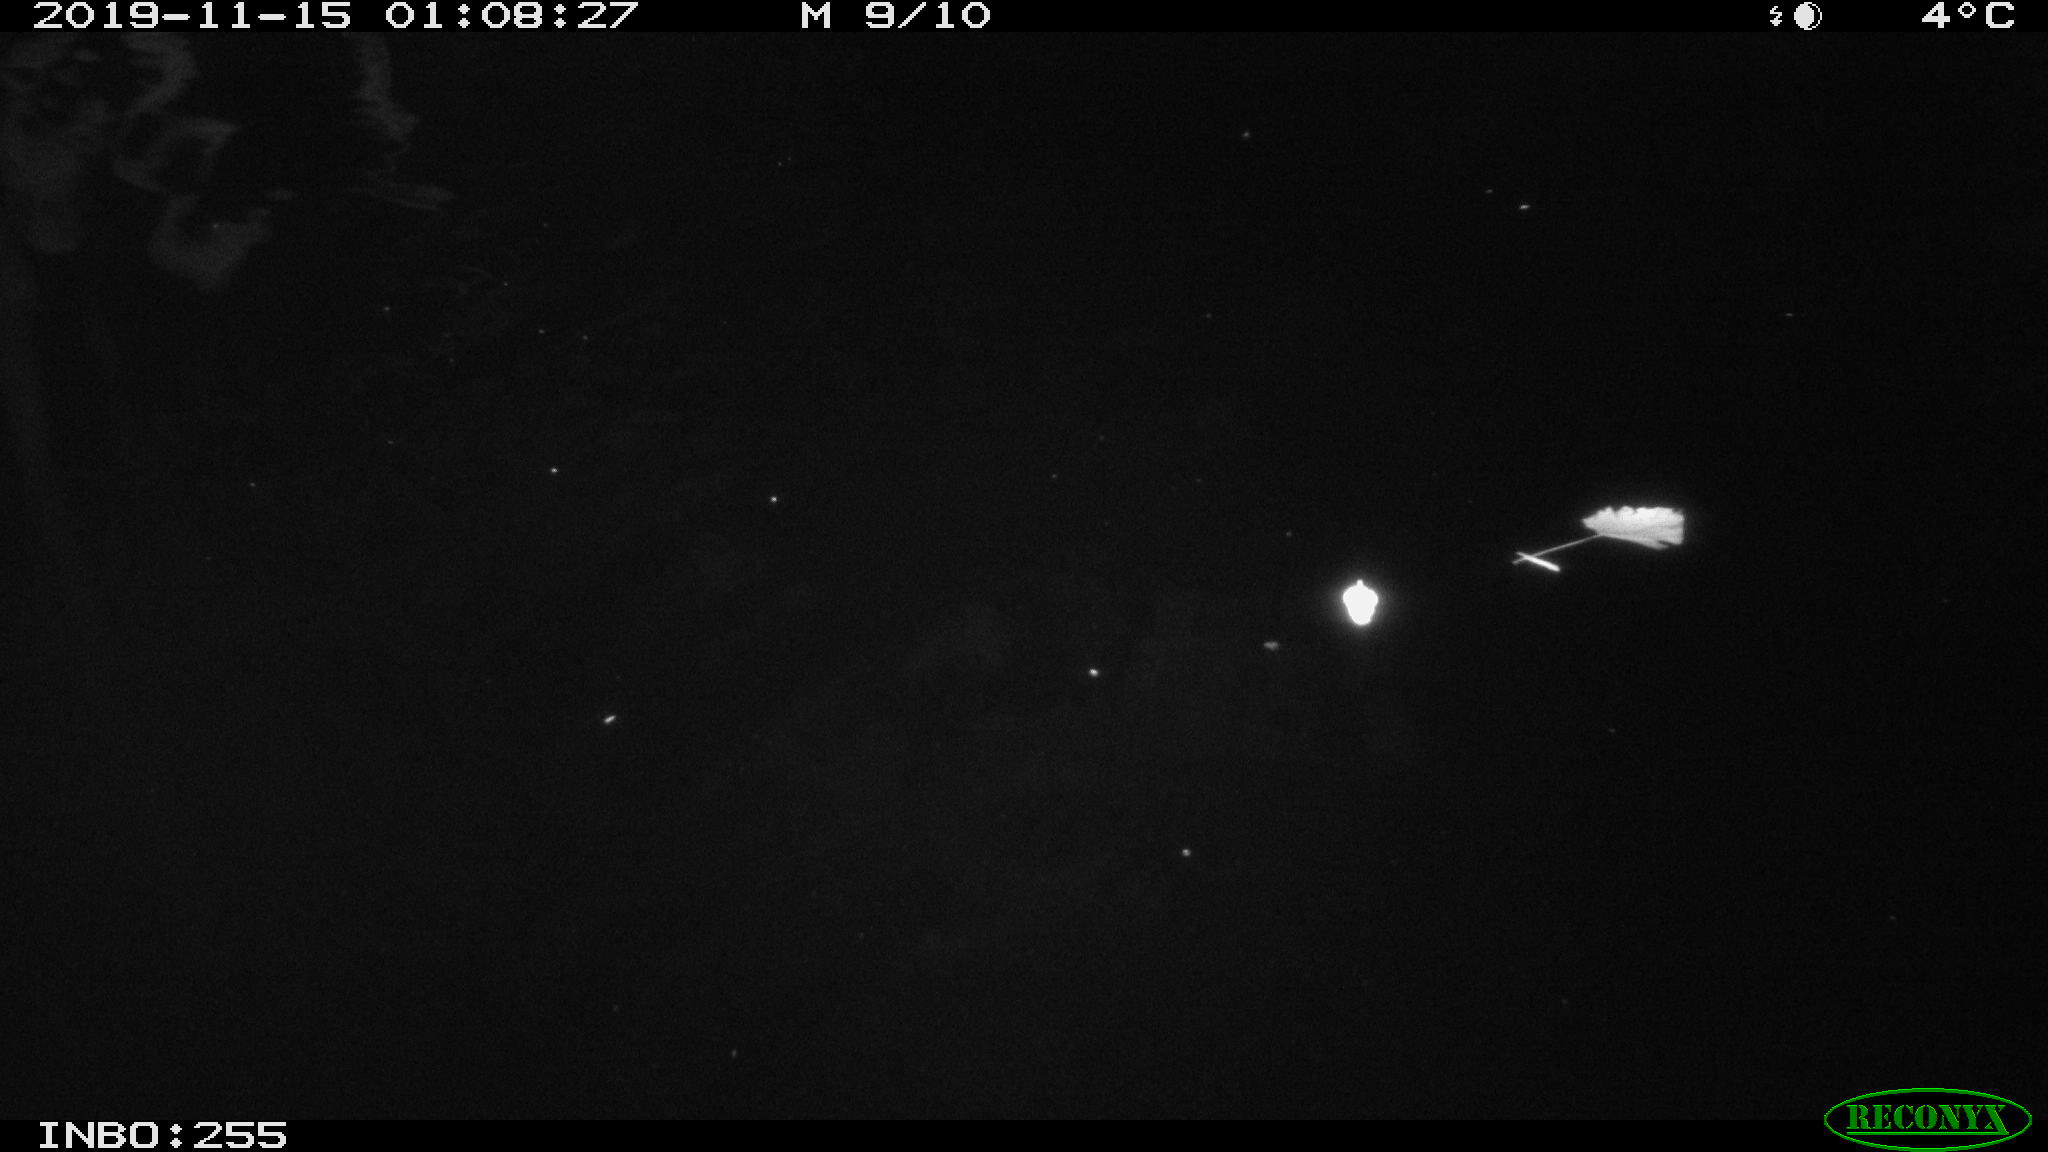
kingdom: Animalia
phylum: Chordata
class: Mammalia
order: Rodentia
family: Muridae
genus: Rattus
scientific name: Rattus norvegicus
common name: Brown rat
